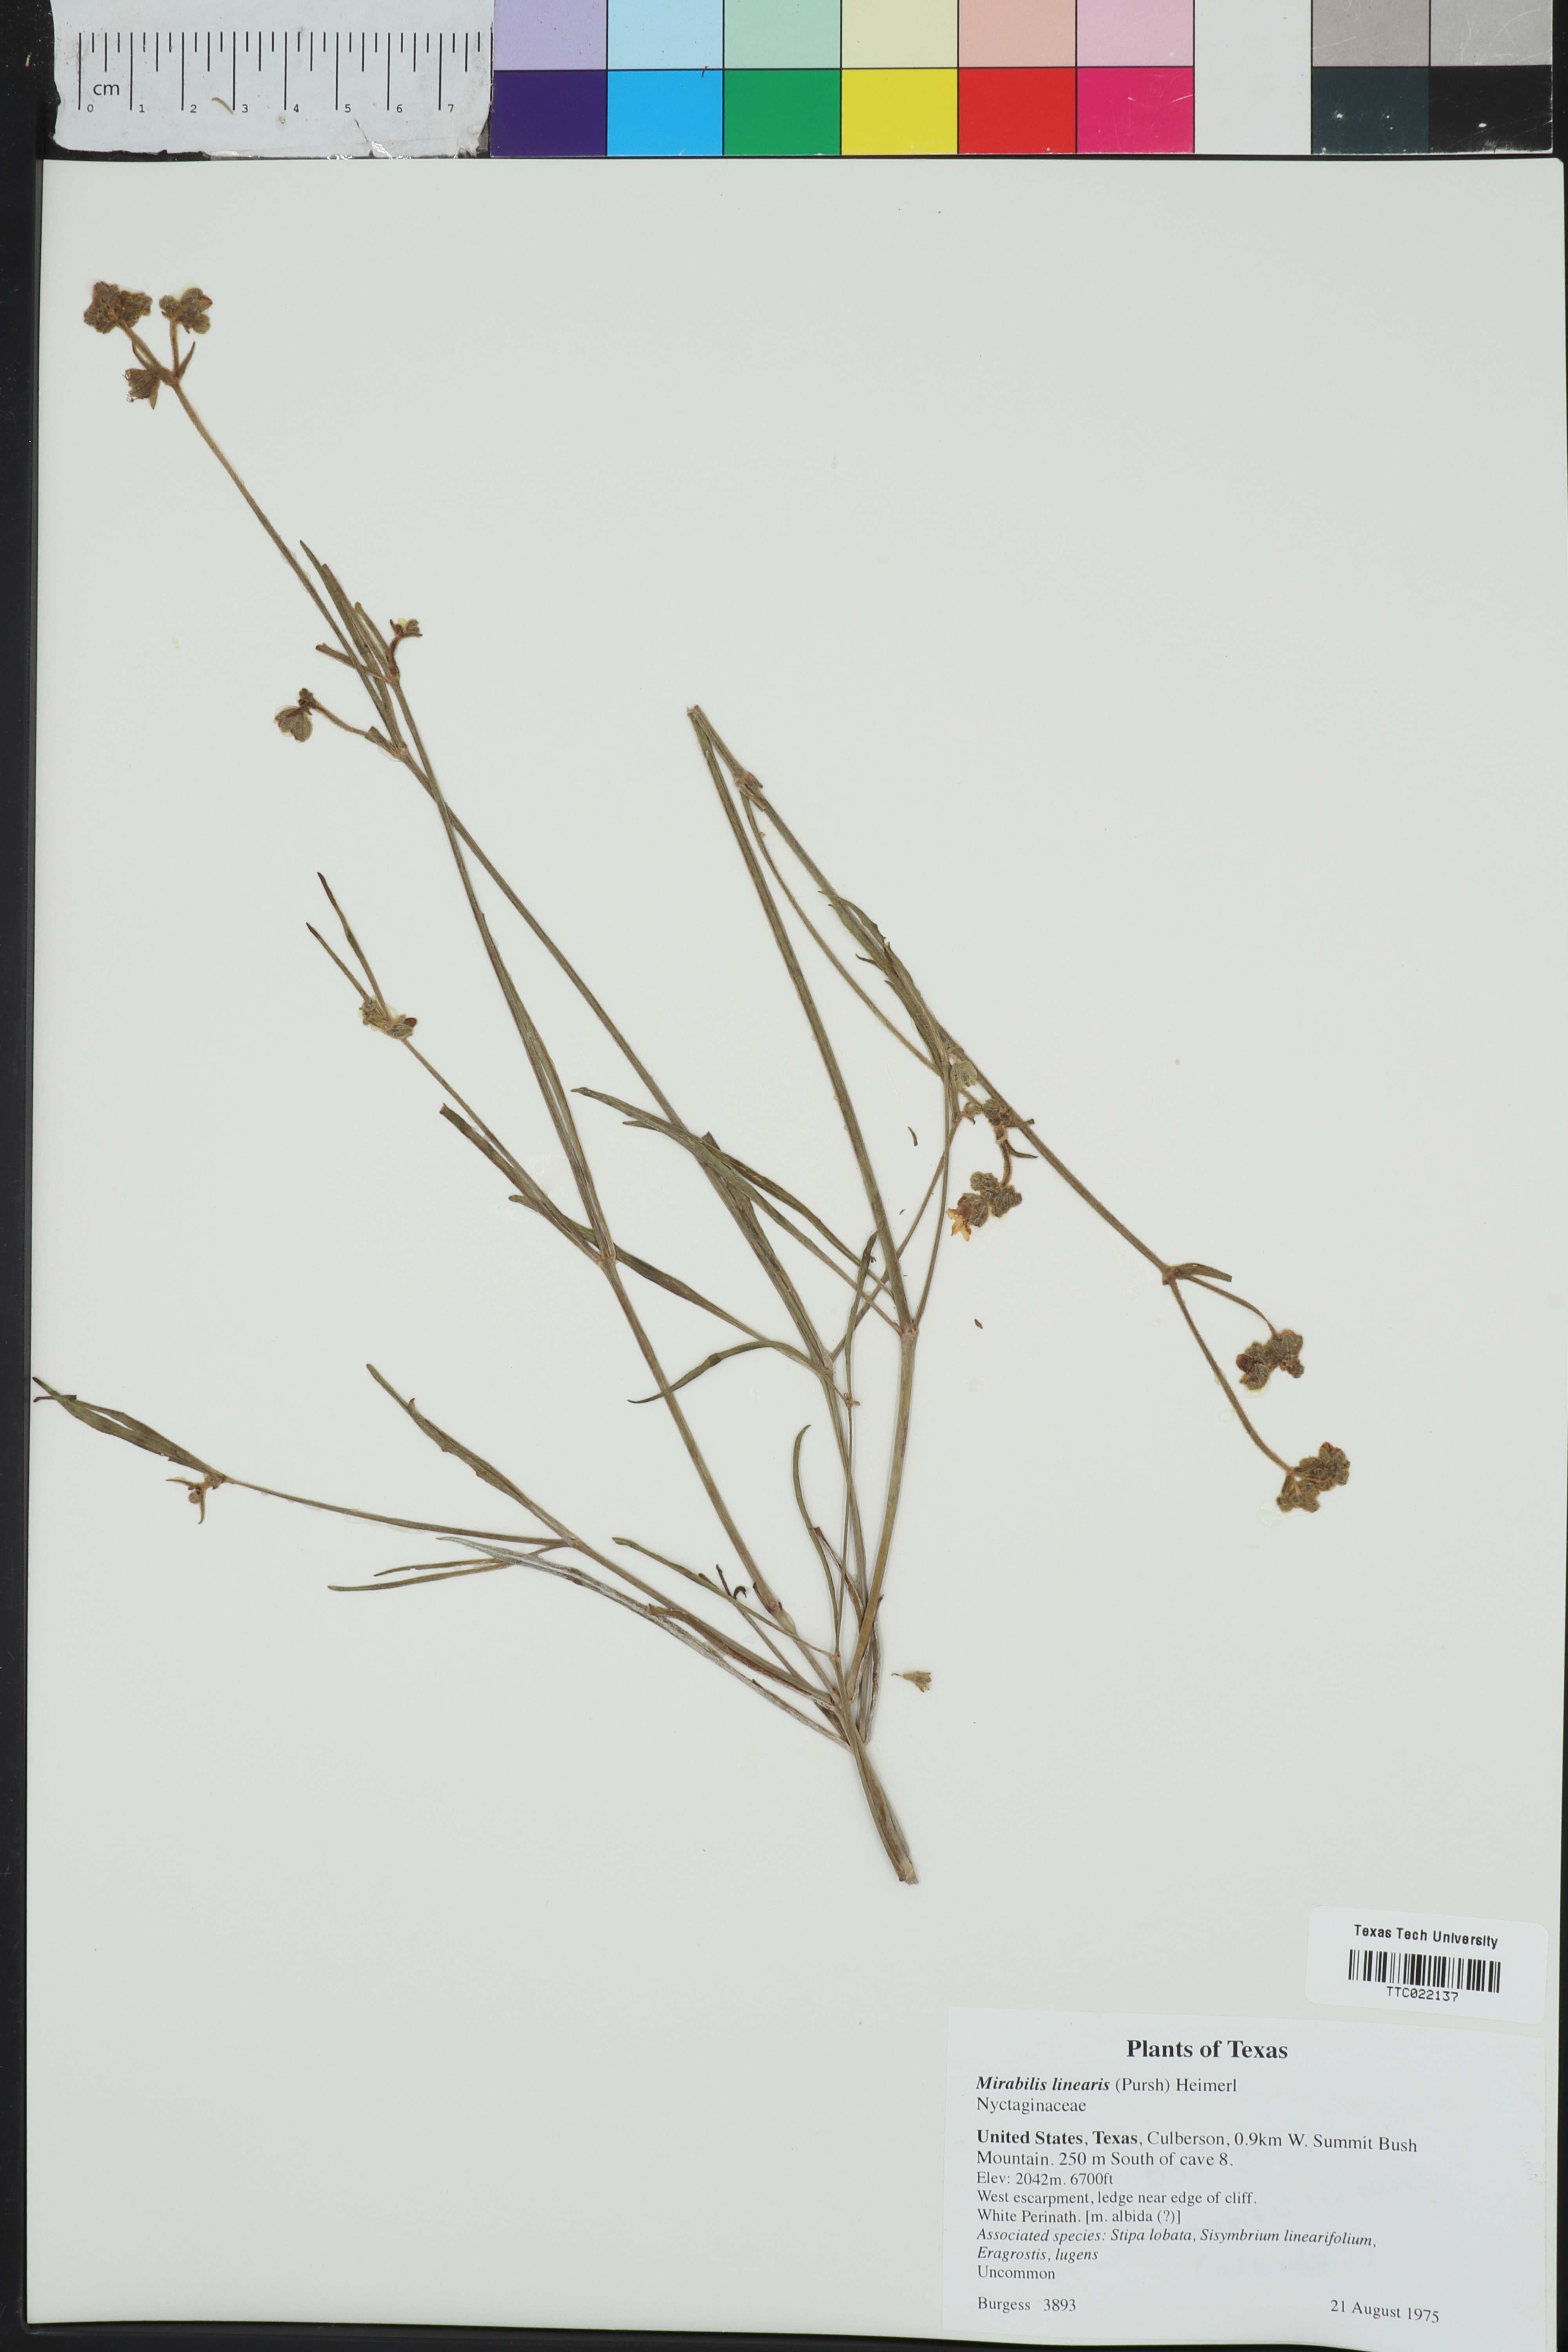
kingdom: Plantae
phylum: Tracheophyta
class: Magnoliopsida
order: Caryophyllales
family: Nyctaginaceae
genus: Mirabilis
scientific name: Mirabilis linearis
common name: Linear-leaved four-o'clock
